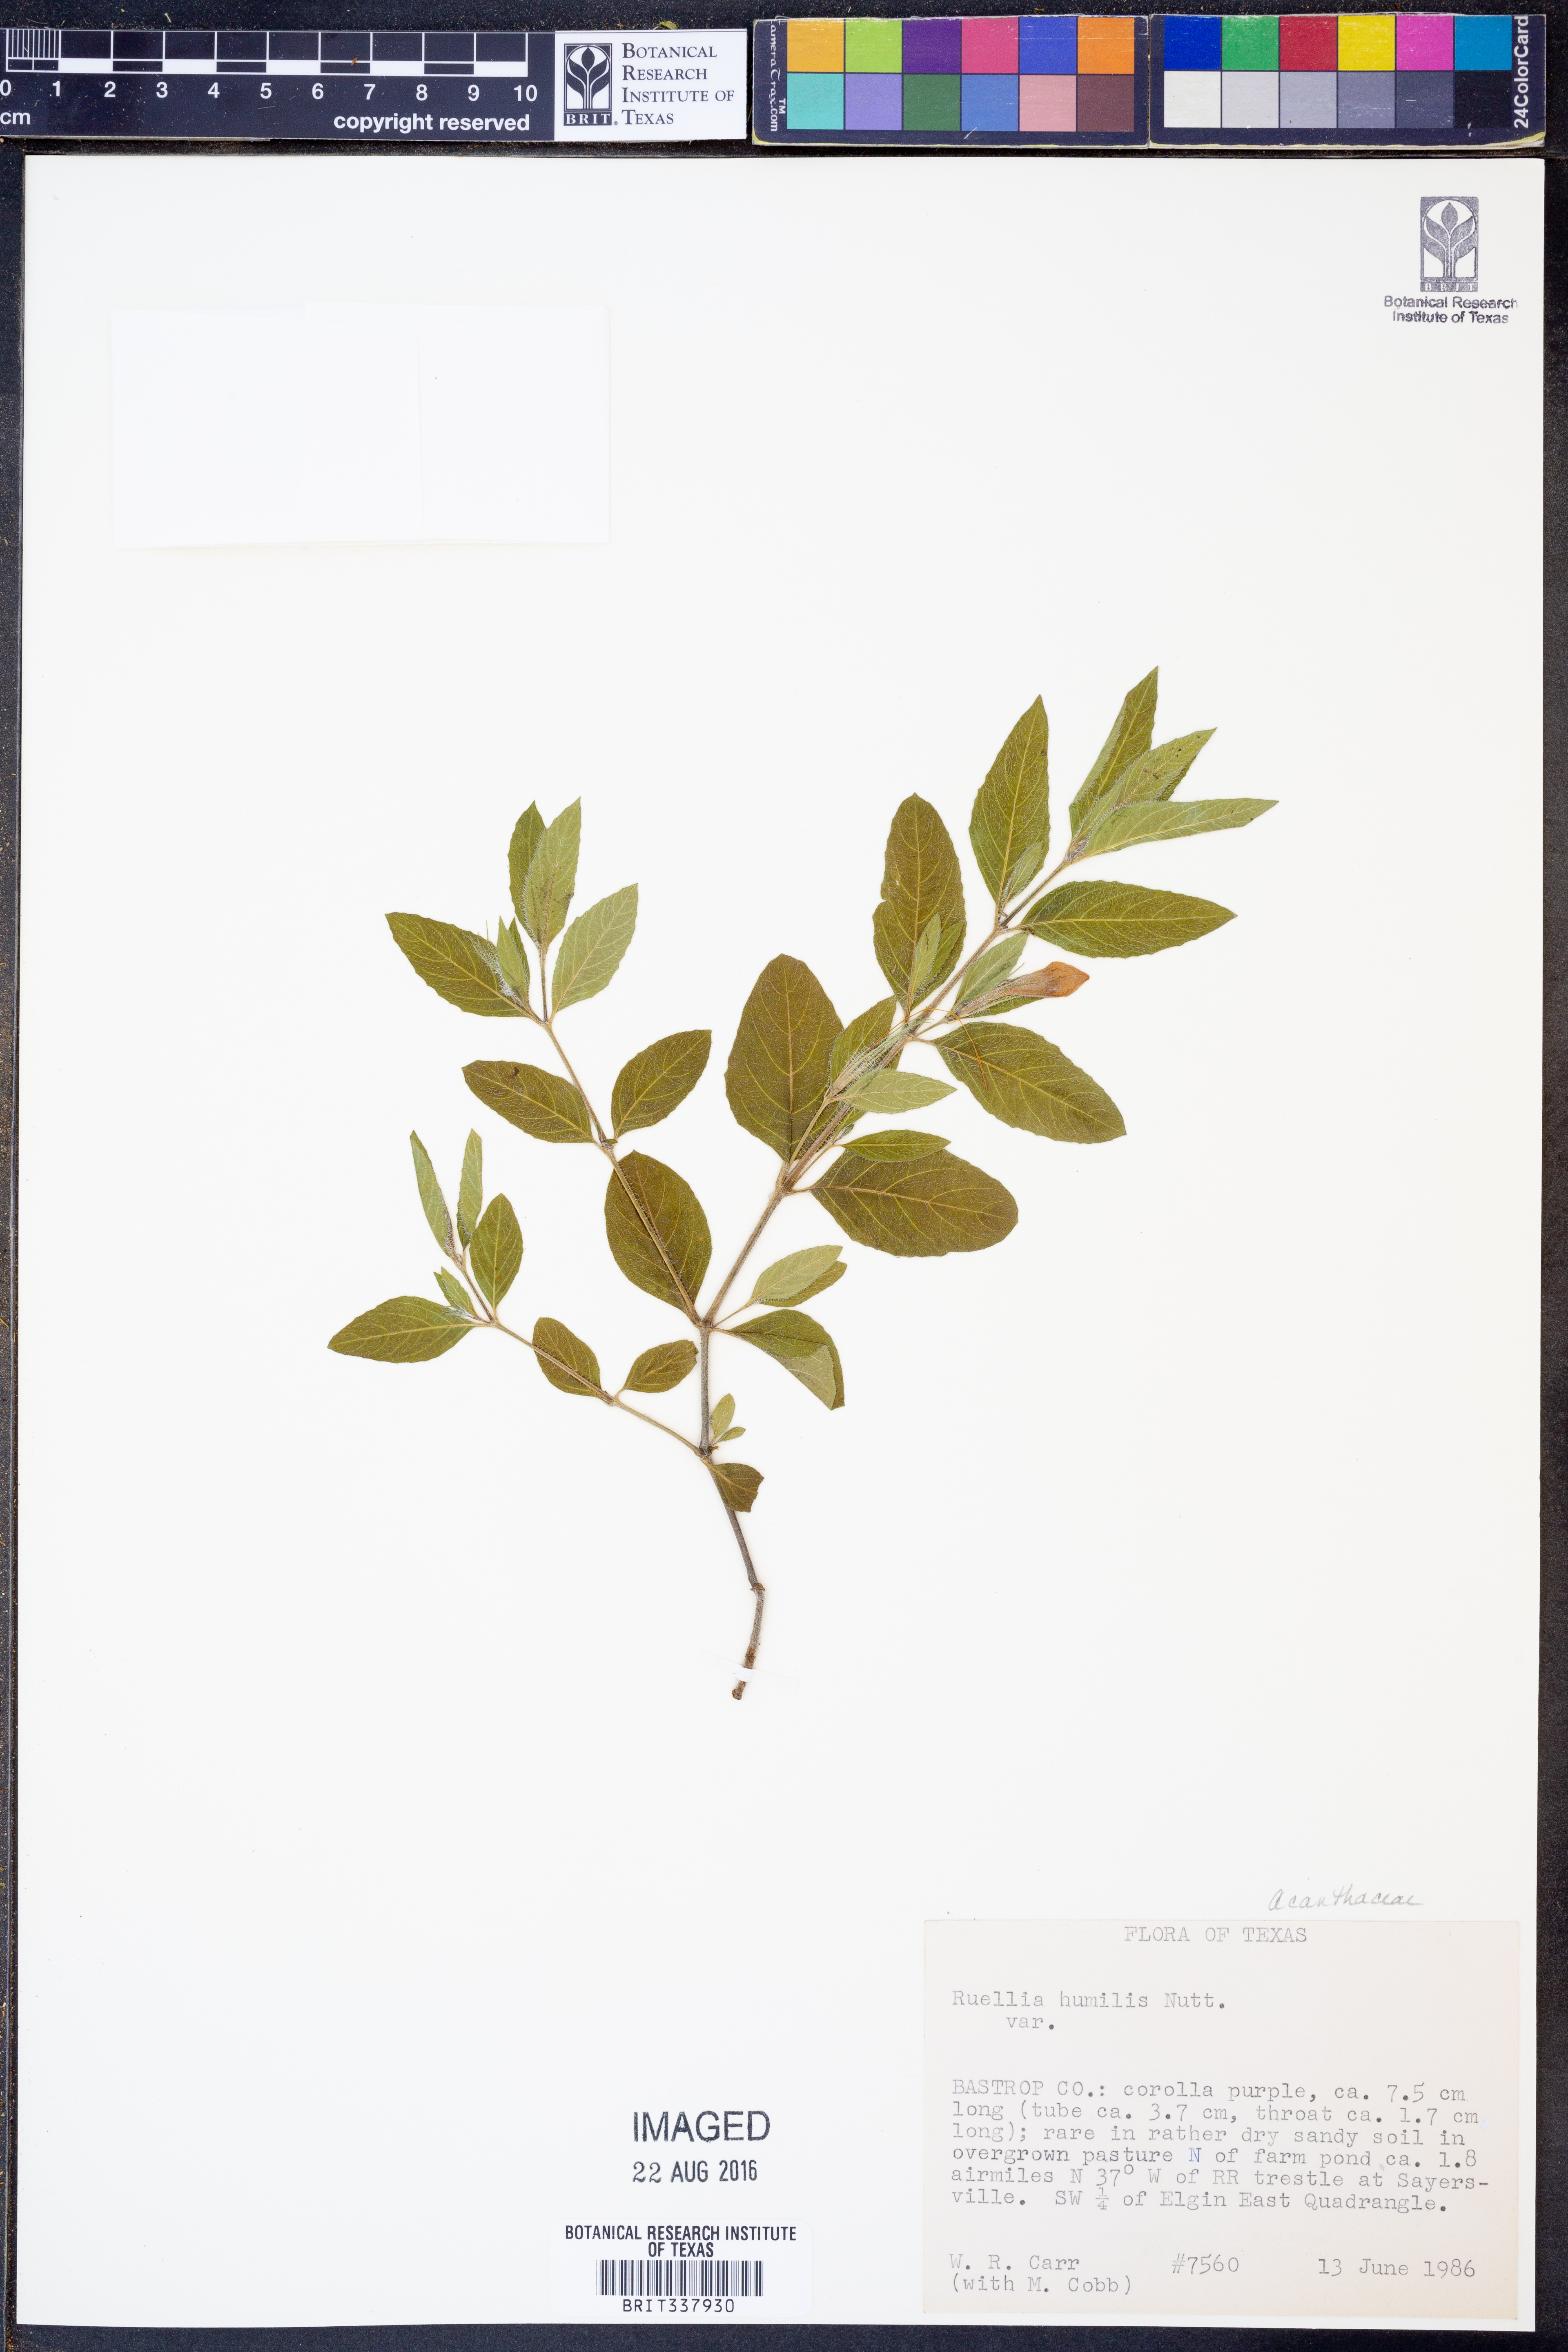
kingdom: Plantae
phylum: Tracheophyta
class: Magnoliopsida
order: Lamiales
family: Acanthaceae
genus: Ruellia
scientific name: Ruellia humilis
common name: Fringe-leaf ruellia
